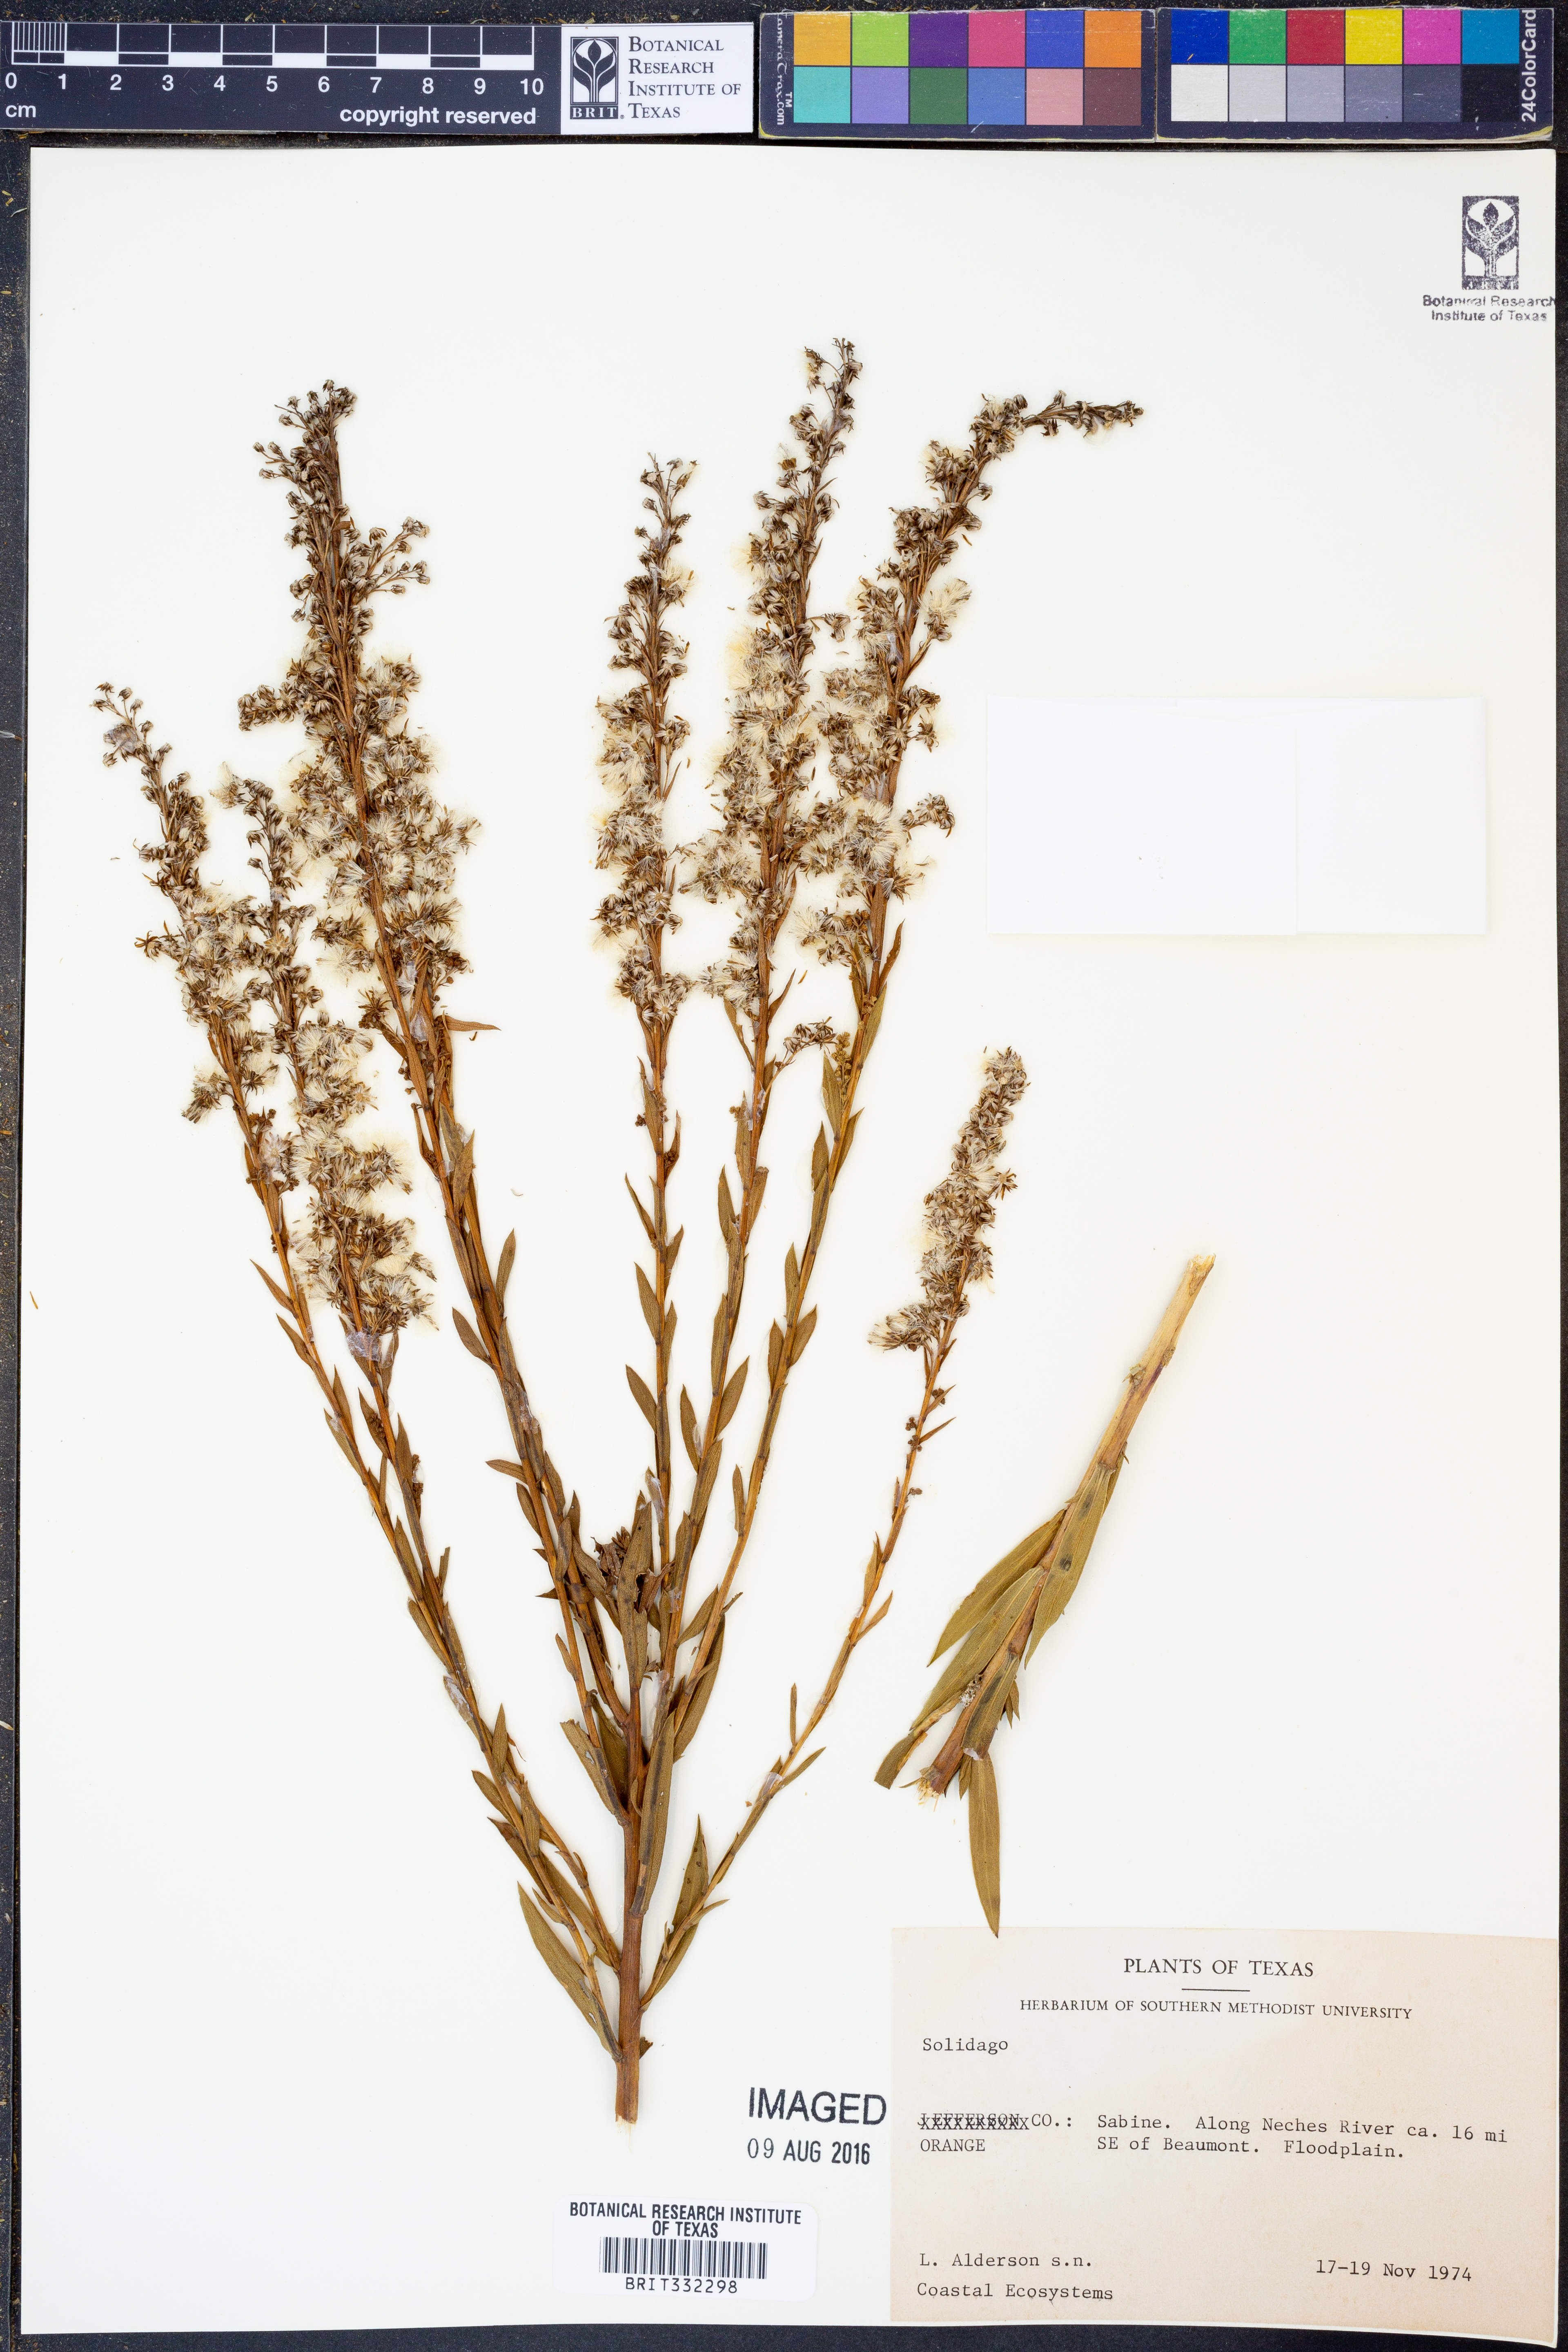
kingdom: Plantae
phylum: Tracheophyta
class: Magnoliopsida
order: Asterales
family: Asteraceae
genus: Solidago
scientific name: Solidago
